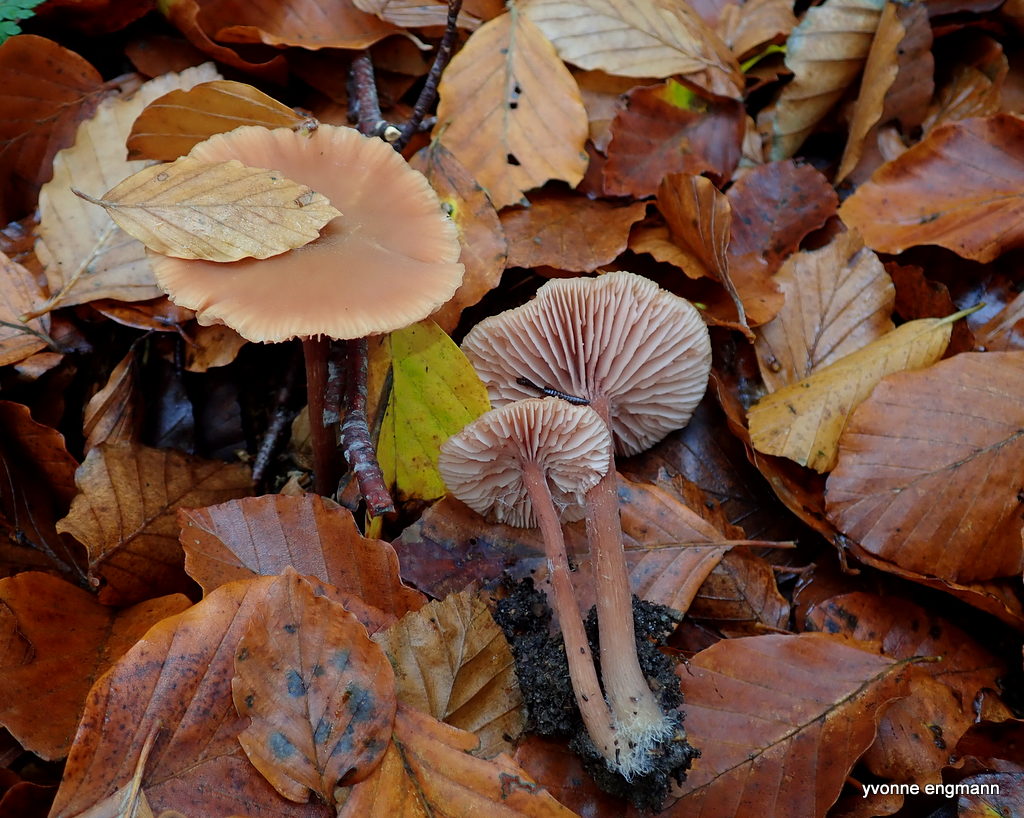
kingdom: Fungi
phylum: Basidiomycota
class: Agaricomycetes
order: Agaricales
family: Hydnangiaceae
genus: Laccaria
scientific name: Laccaria laccata
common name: rød ametysthat
